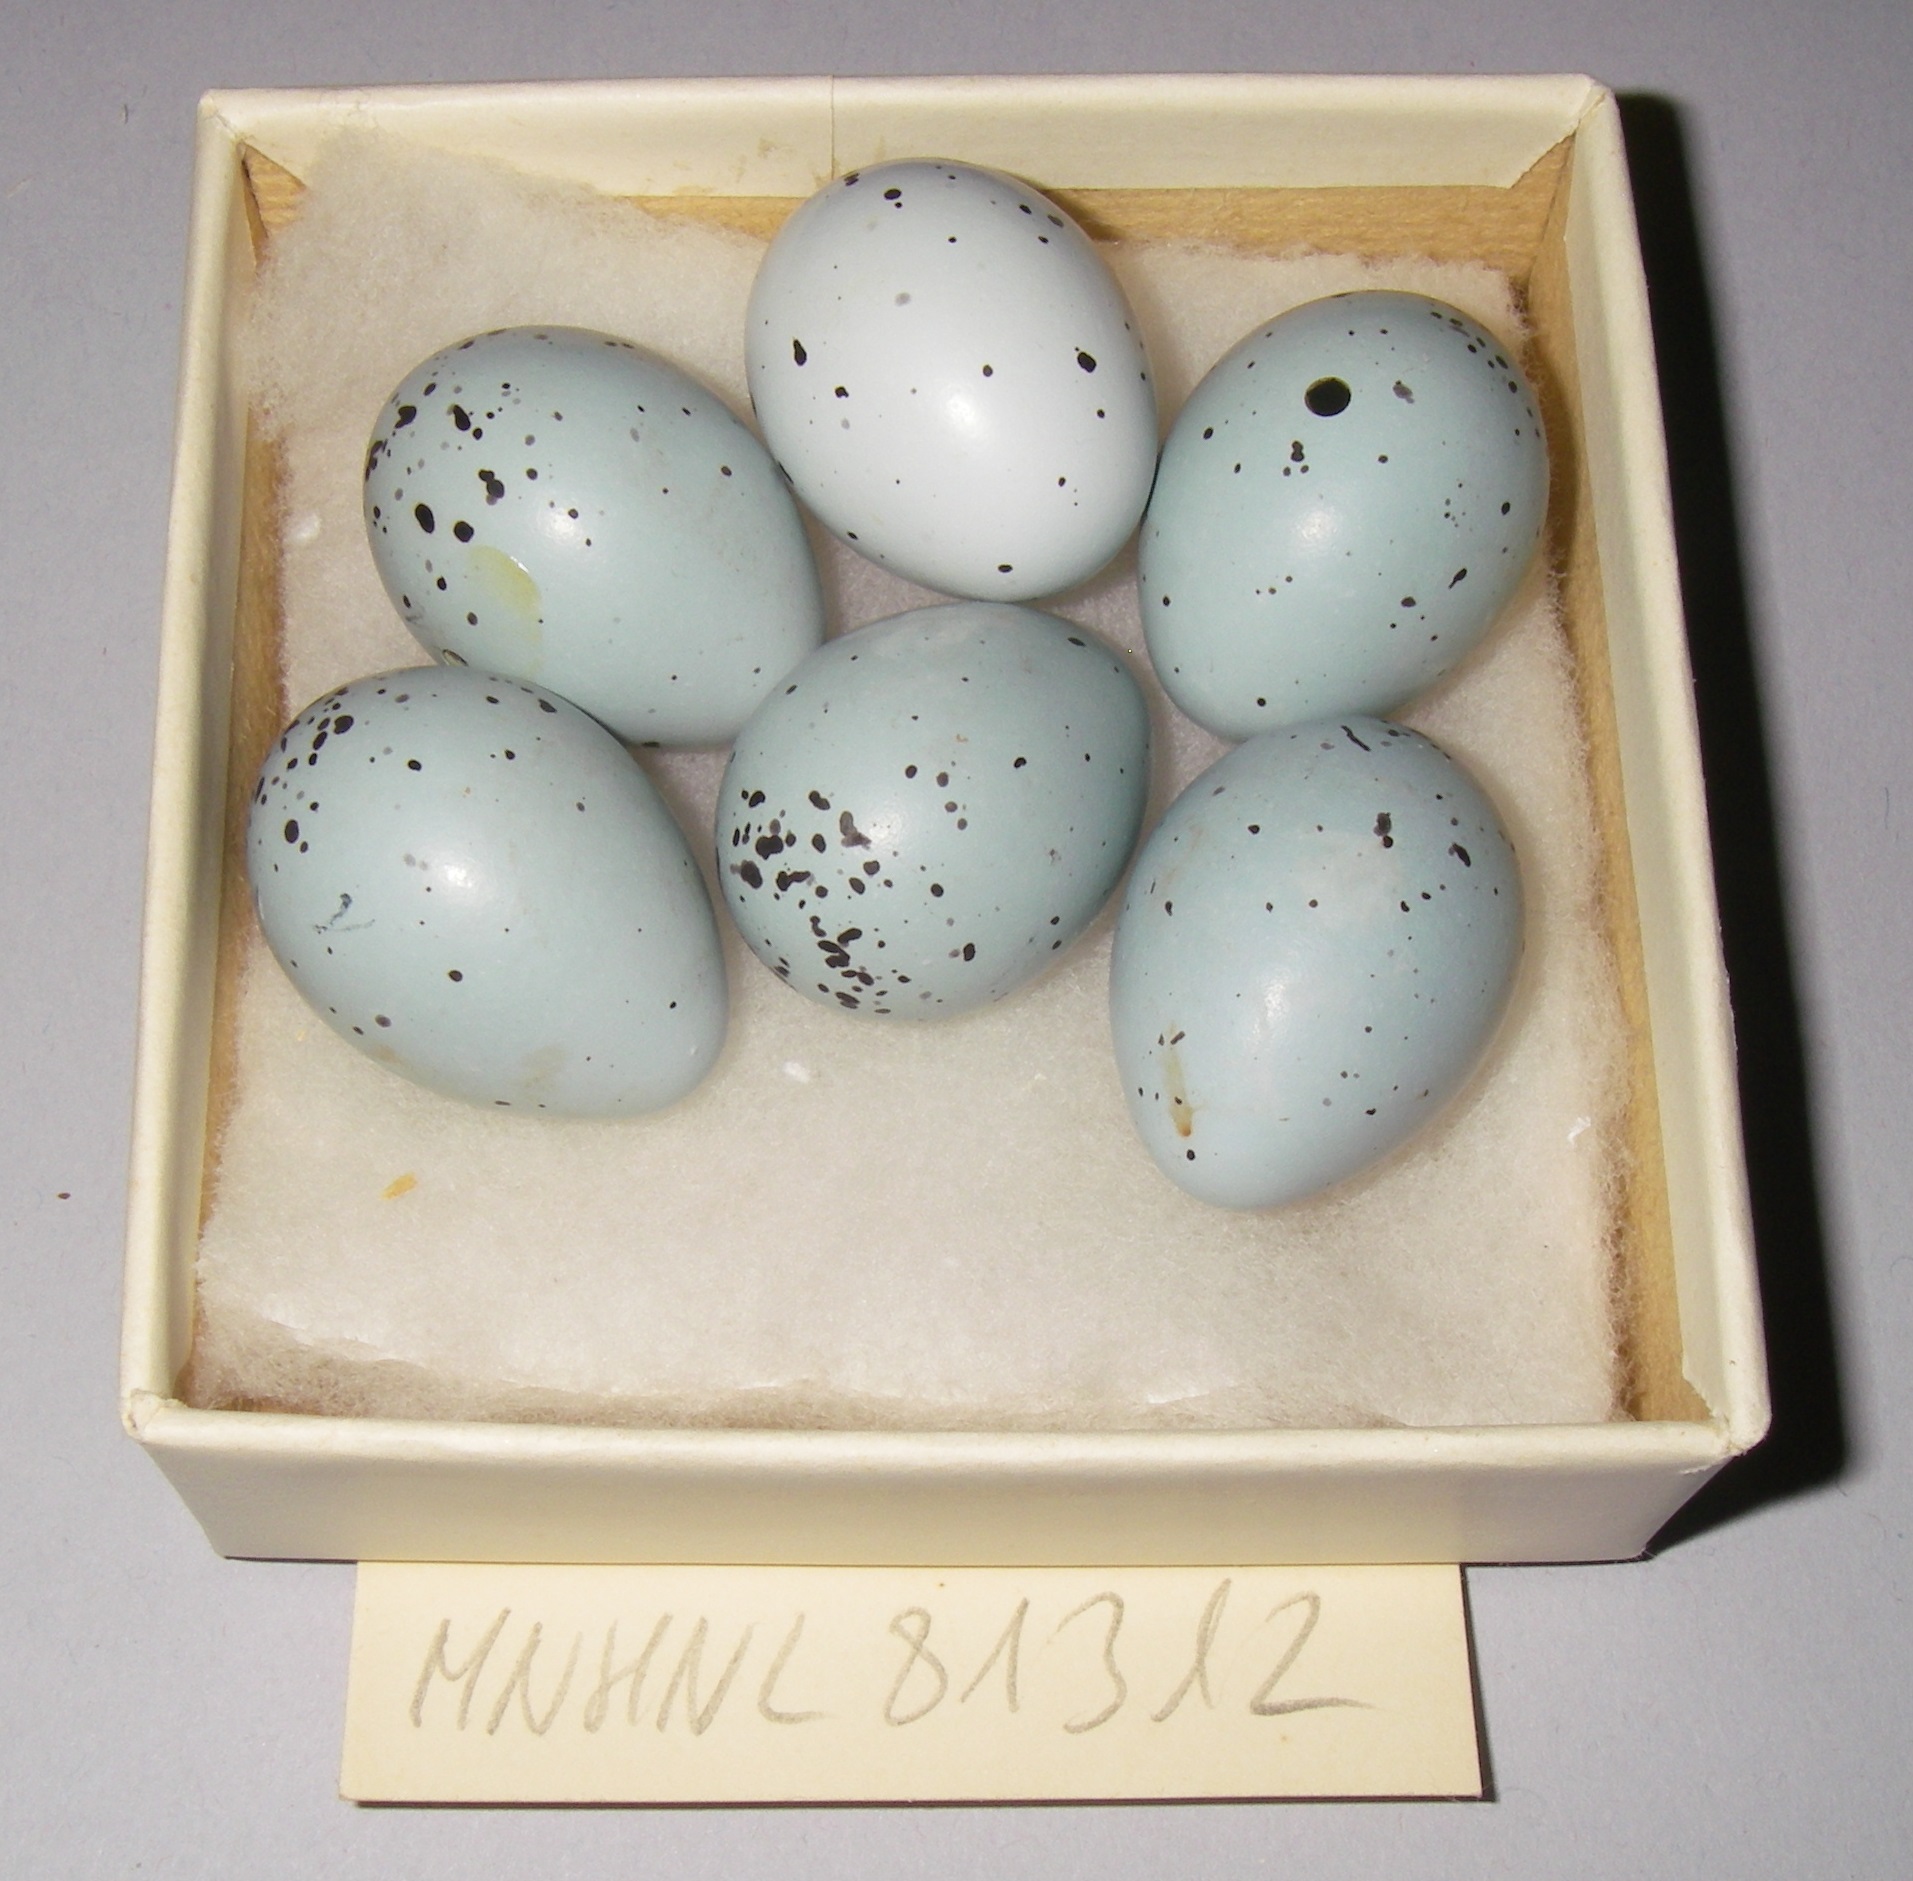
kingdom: Animalia
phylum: Chordata
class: Aves
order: Passeriformes
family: Turdidae
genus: Turdus
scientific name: Turdus philomelos
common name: Song thrush
